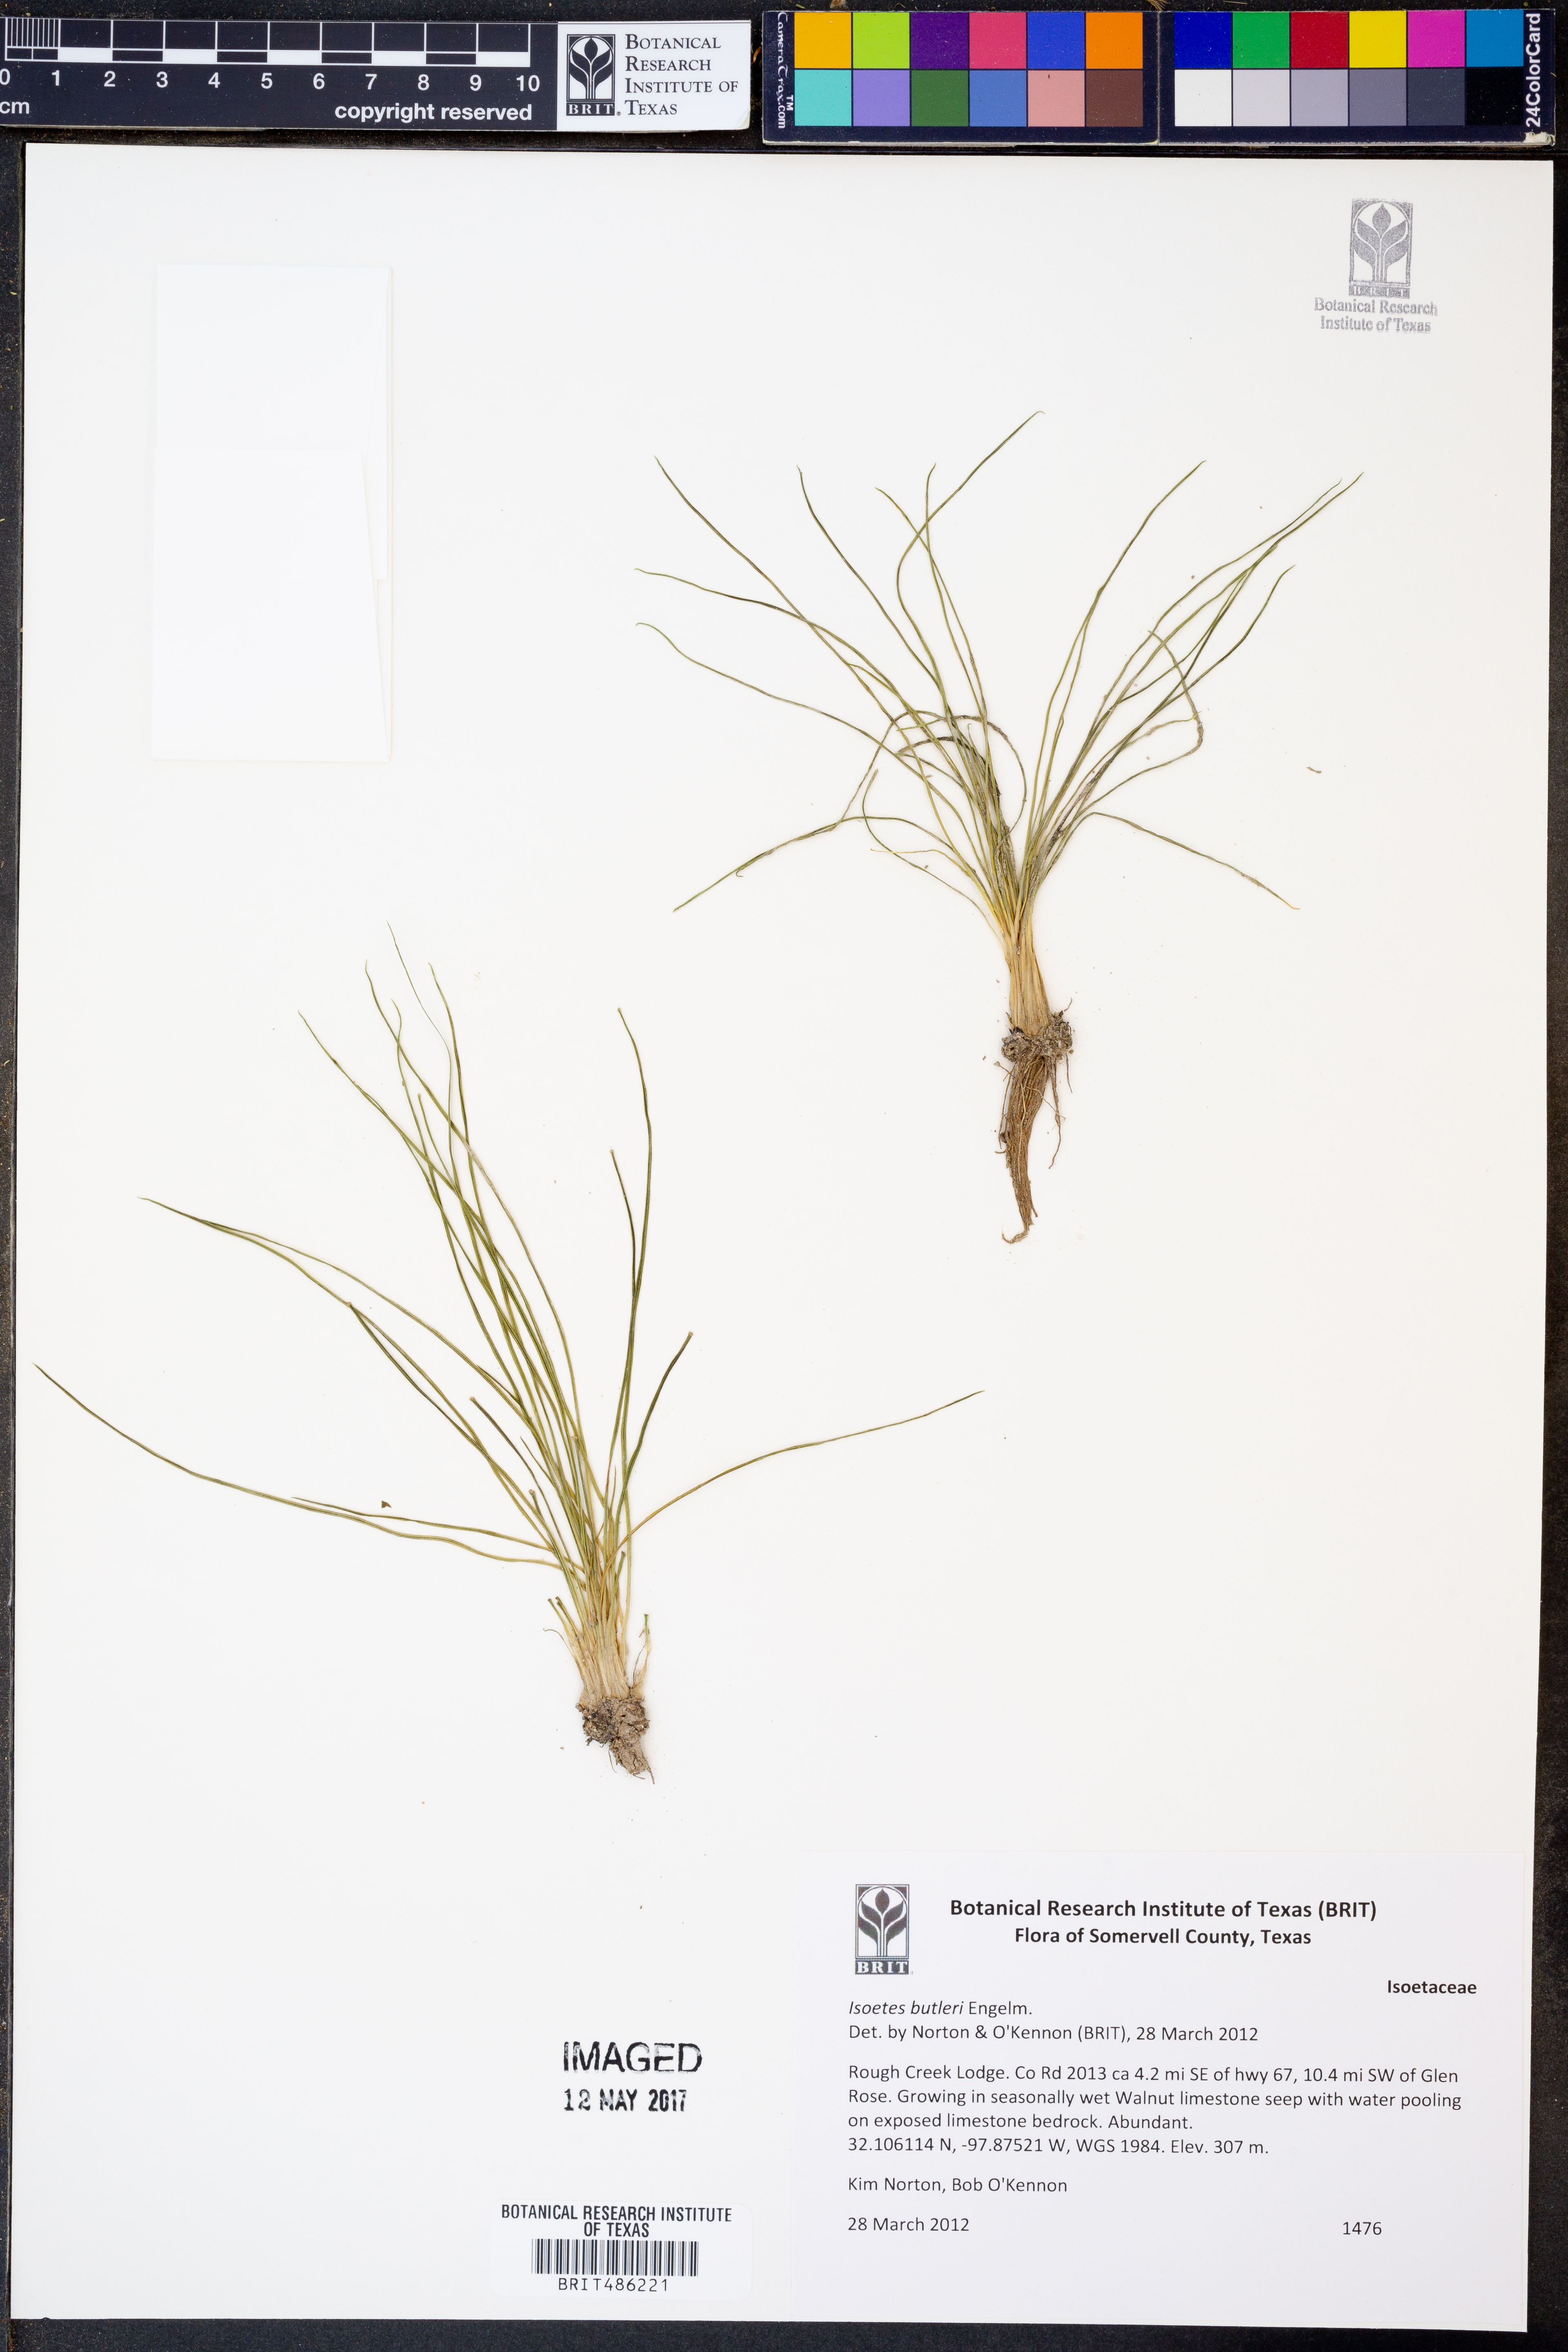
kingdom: Plantae
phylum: Tracheophyta
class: Lycopodiopsida
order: Isoetales
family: Isoetaceae
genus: Isoetes
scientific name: Isoetes butleri
